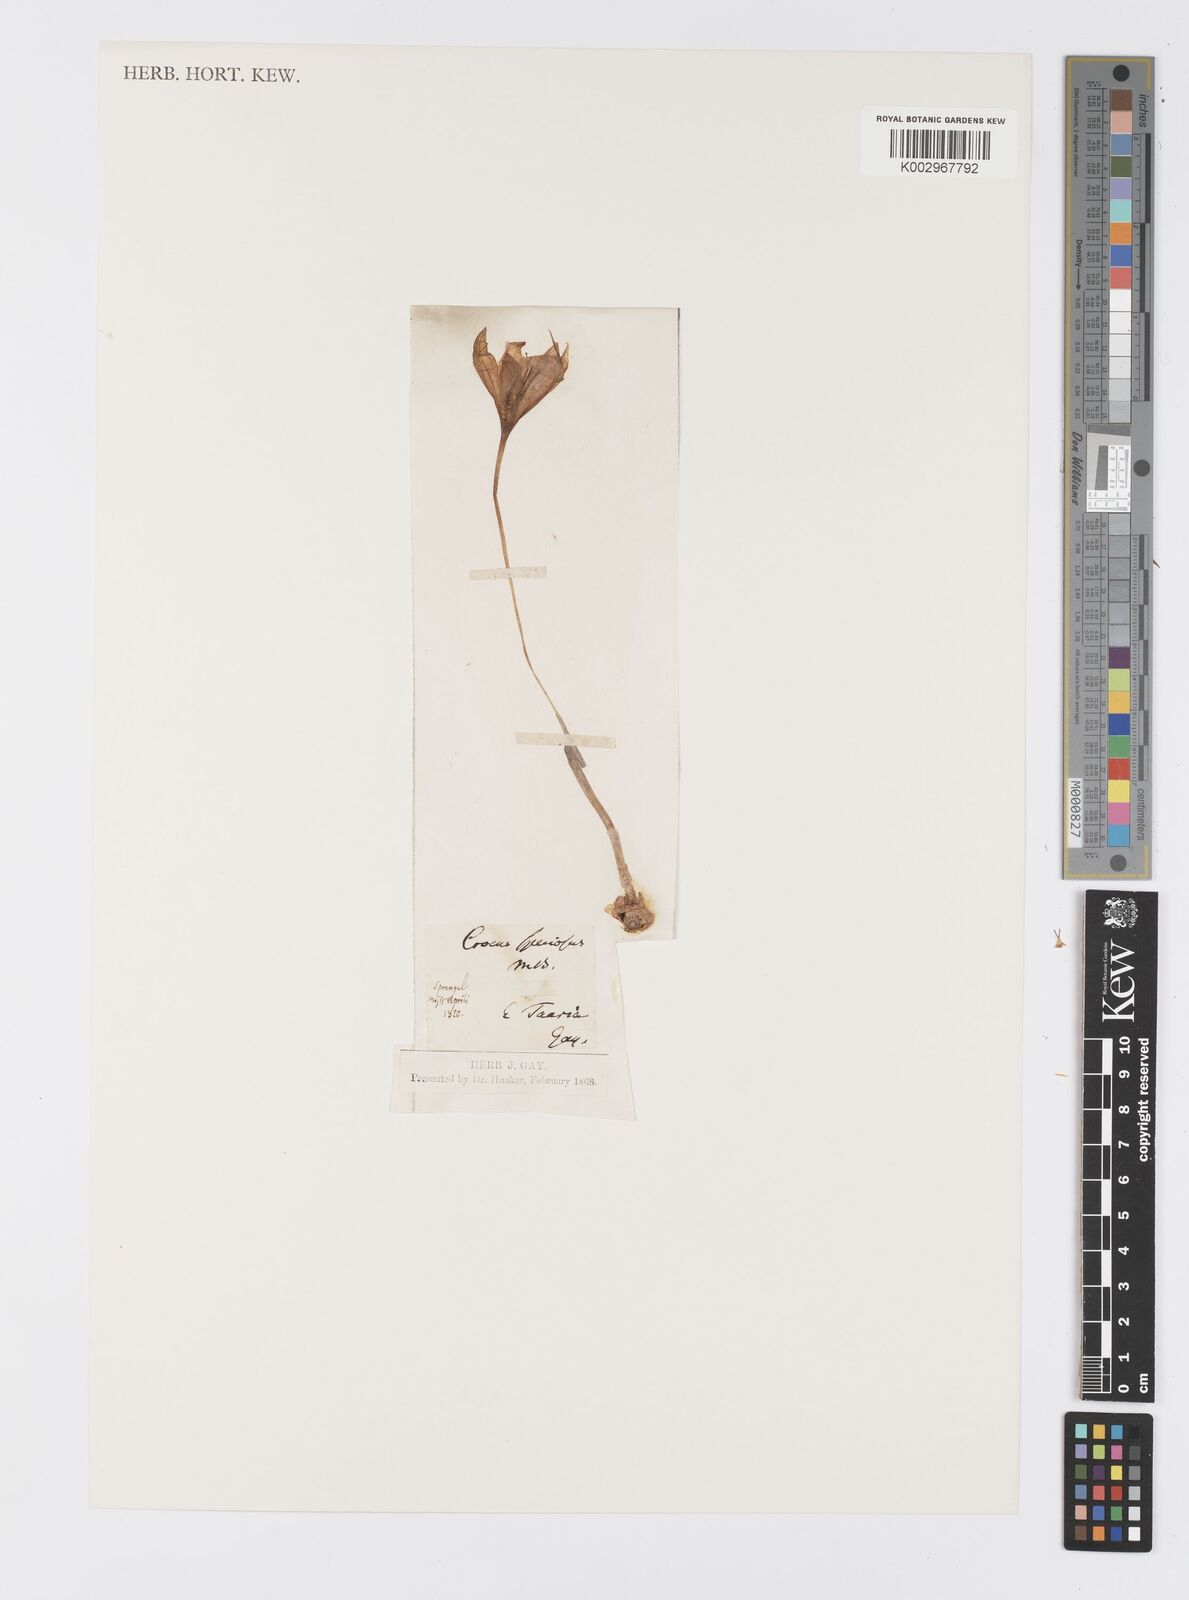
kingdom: Plantae
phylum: Tracheophyta
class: Liliopsida
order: Asparagales
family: Iridaceae
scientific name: Iridaceae
